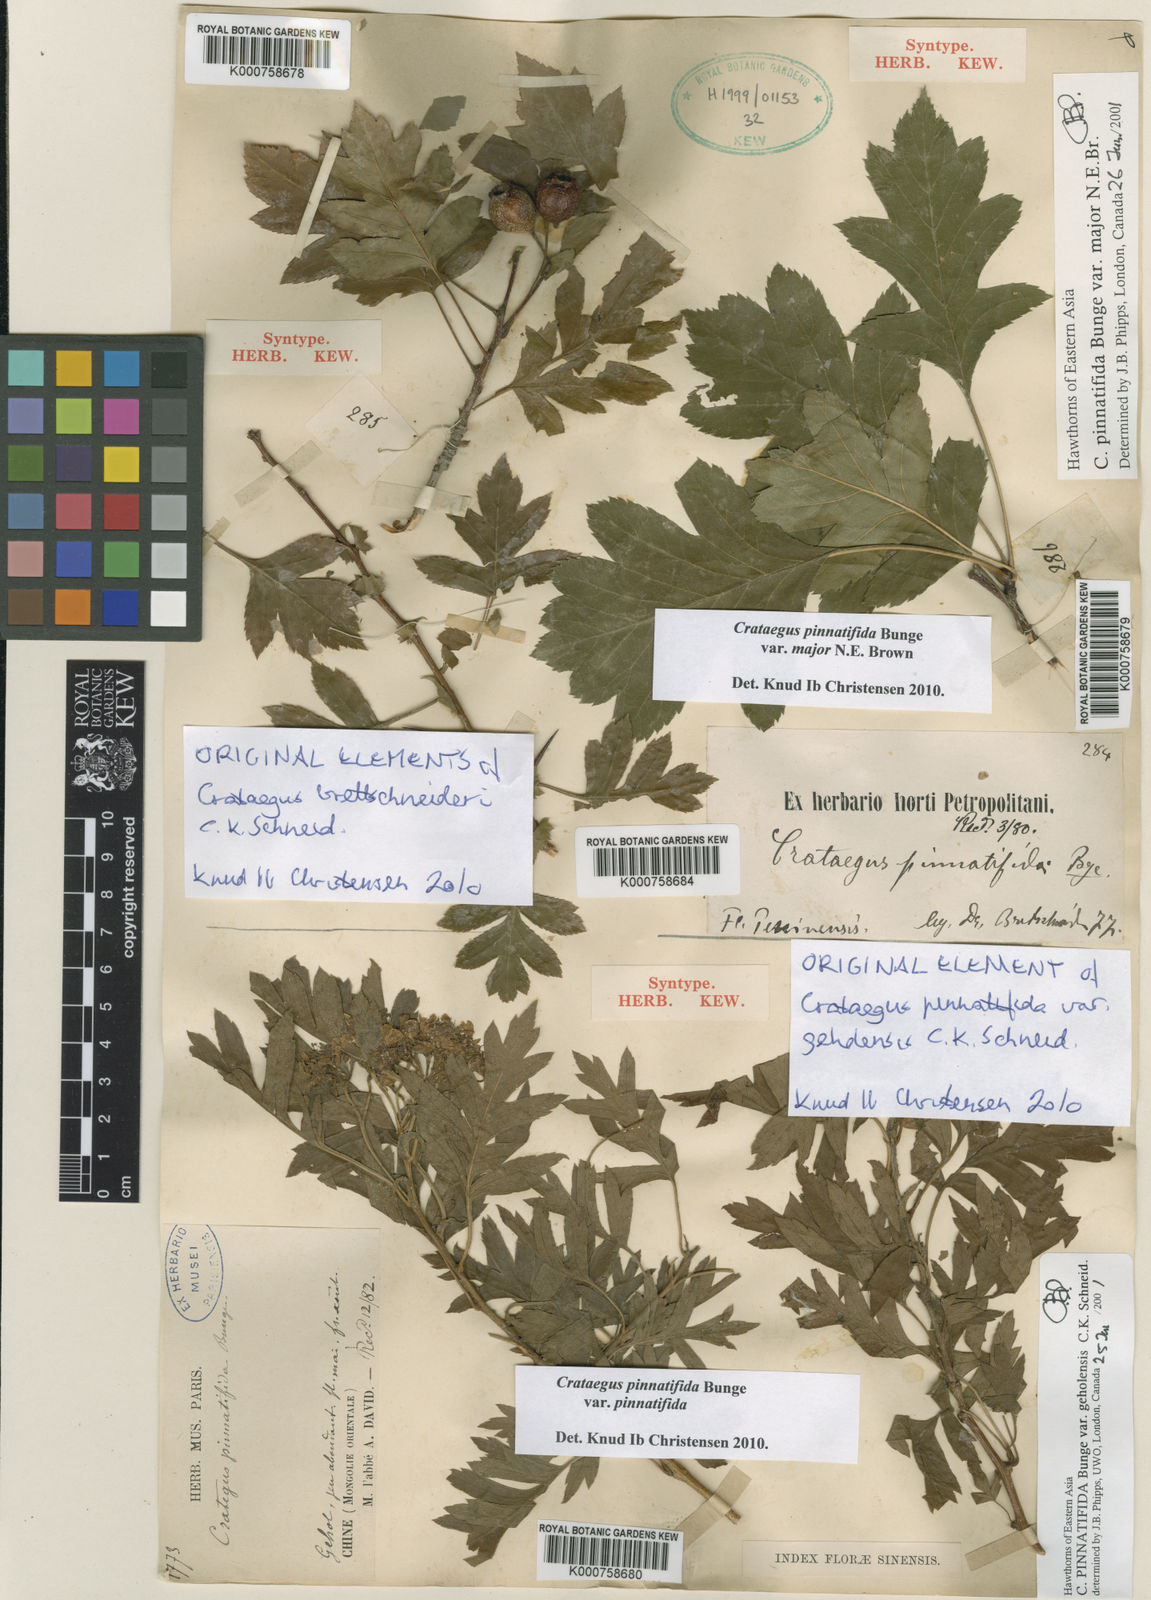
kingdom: Plantae
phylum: Tracheophyta
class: Magnoliopsida
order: Rosales
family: Rosaceae
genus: Crataegus
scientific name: Crataegus pinnatifida
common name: Chinese haw
